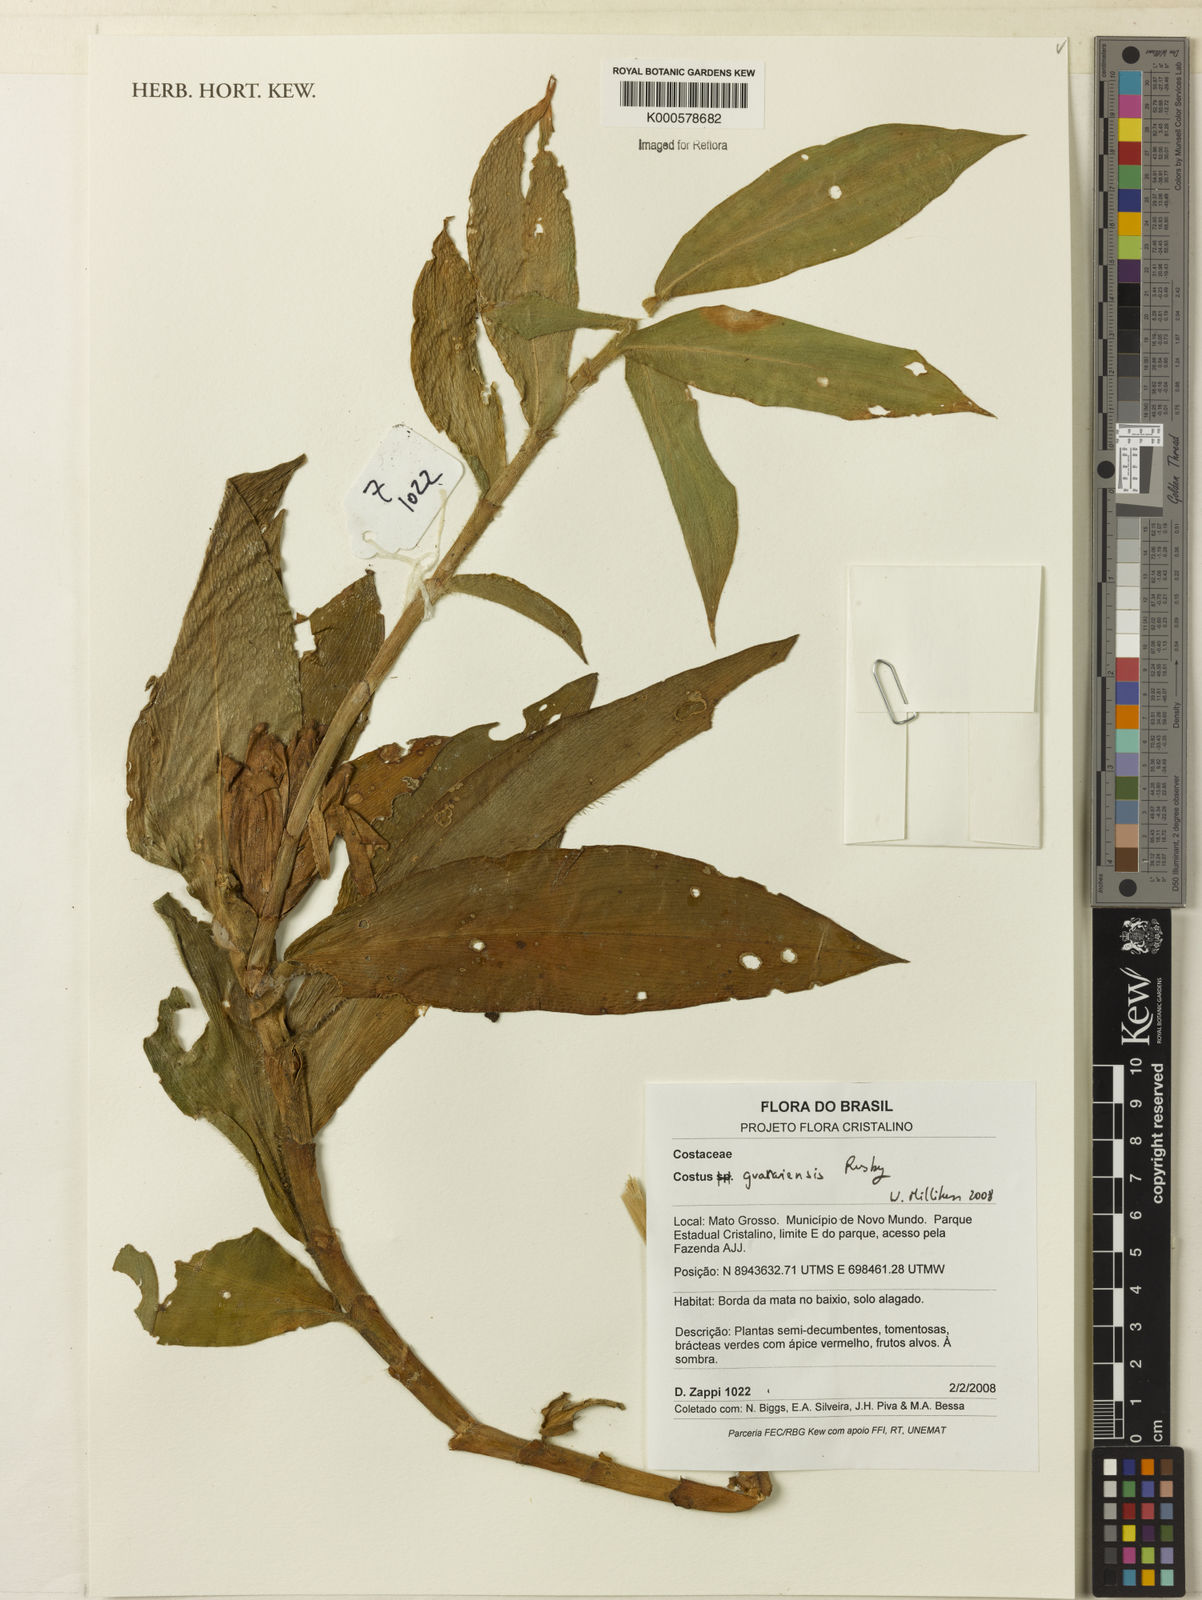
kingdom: Plantae
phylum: Tracheophyta
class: Liliopsida
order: Zingiberales
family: Costaceae
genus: Costus
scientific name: Costus guanaiensis
